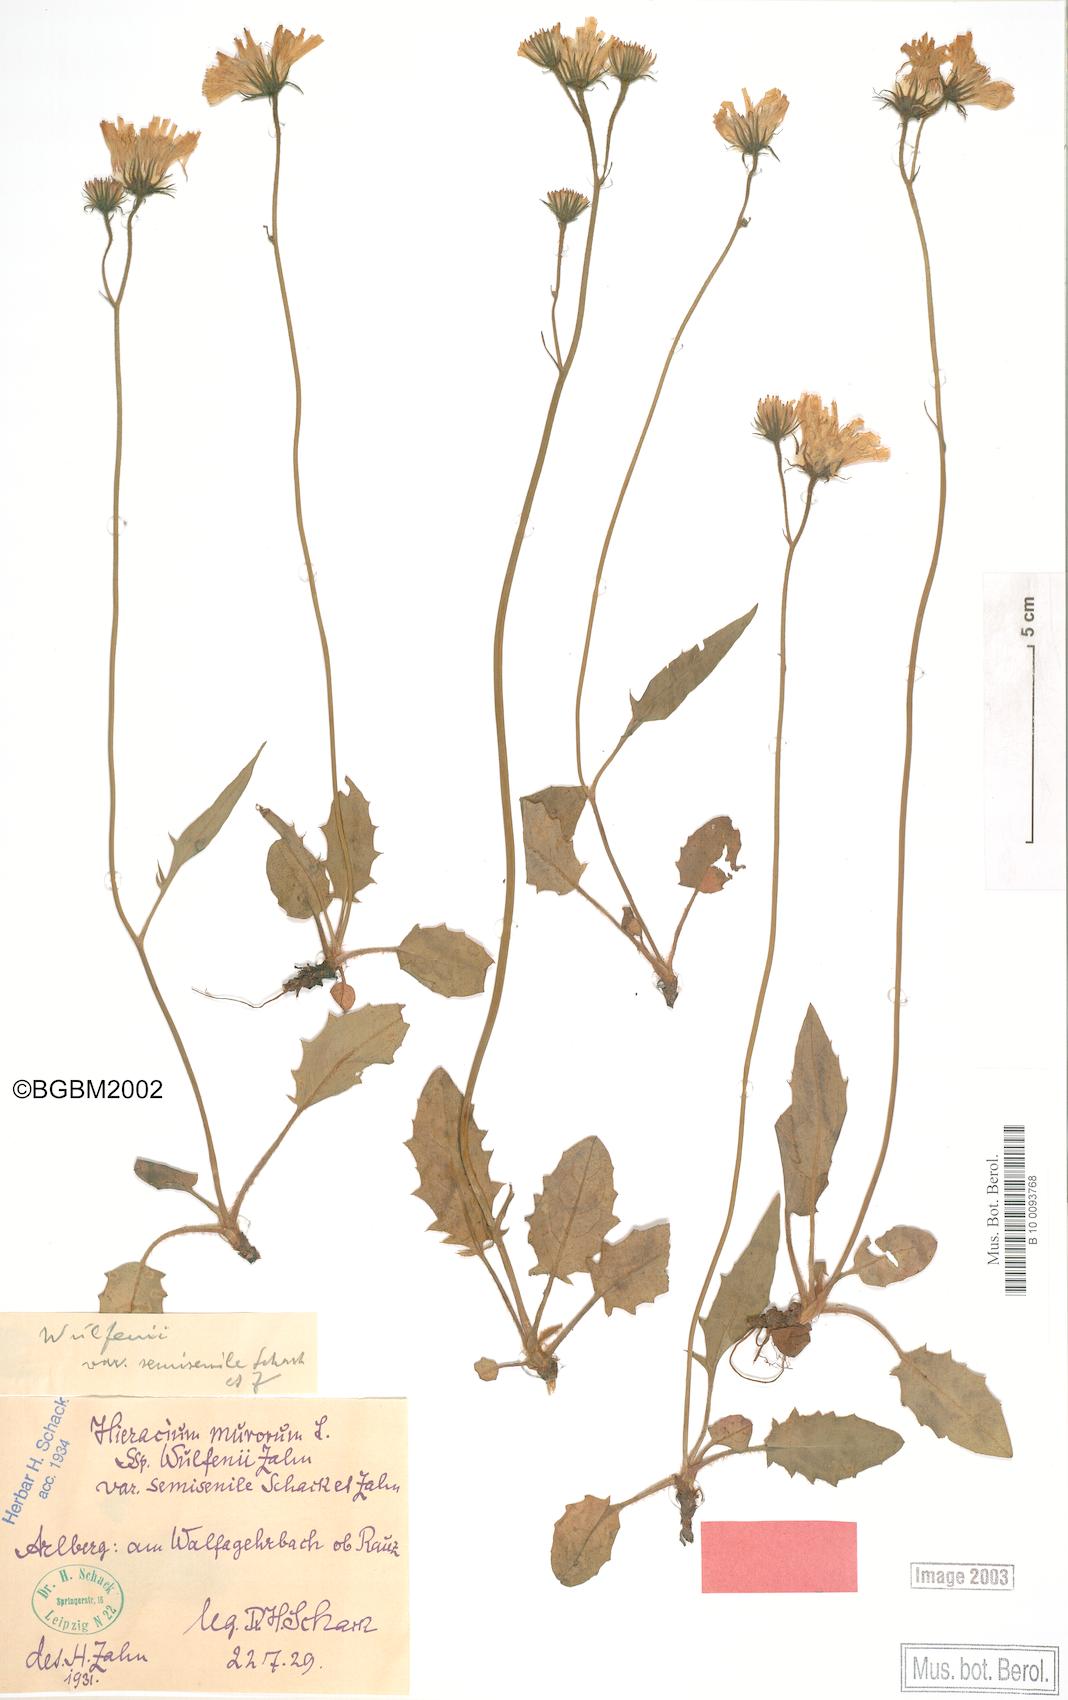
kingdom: Plantae
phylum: Tracheophyta
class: Magnoliopsida
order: Asterales
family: Asteraceae
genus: Hieracium
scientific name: Hieracium murorum
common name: Wall hawkweed
